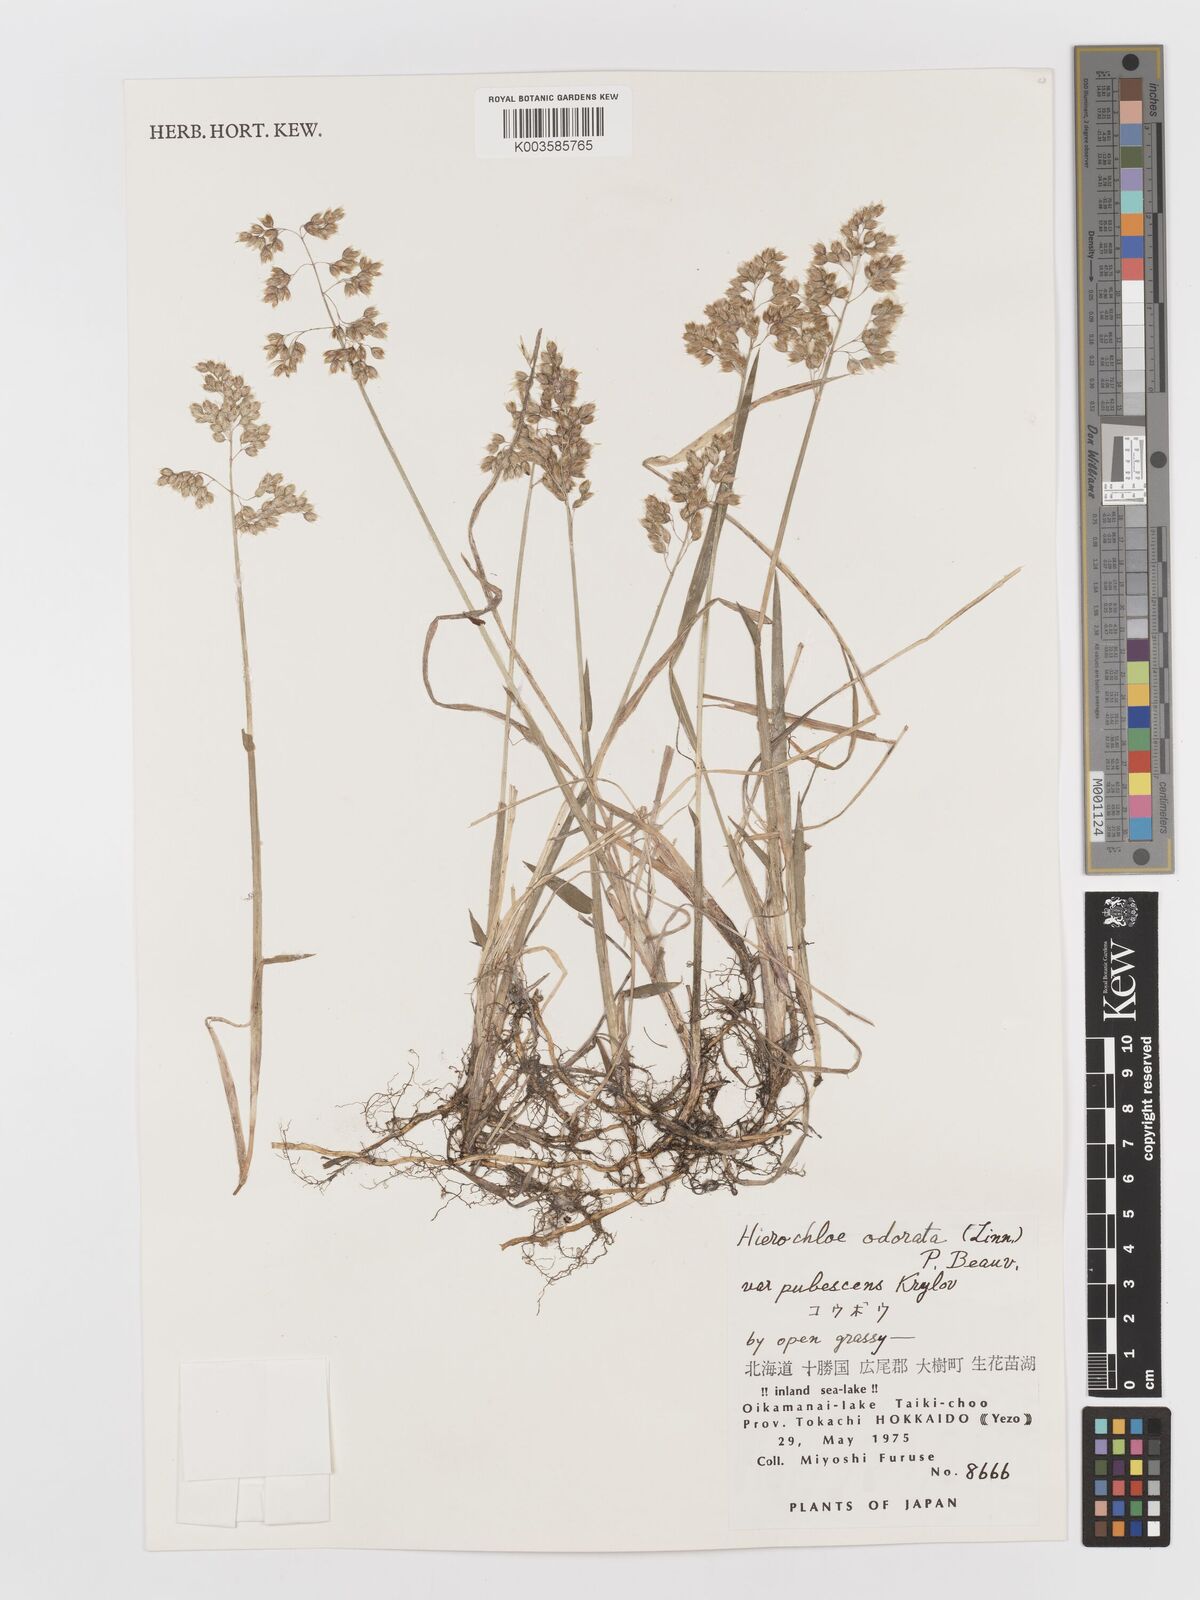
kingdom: Plantae
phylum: Tracheophyta
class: Liliopsida
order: Poales
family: Poaceae
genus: Anthoxanthum
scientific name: Anthoxanthum nitens
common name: Holy grass
